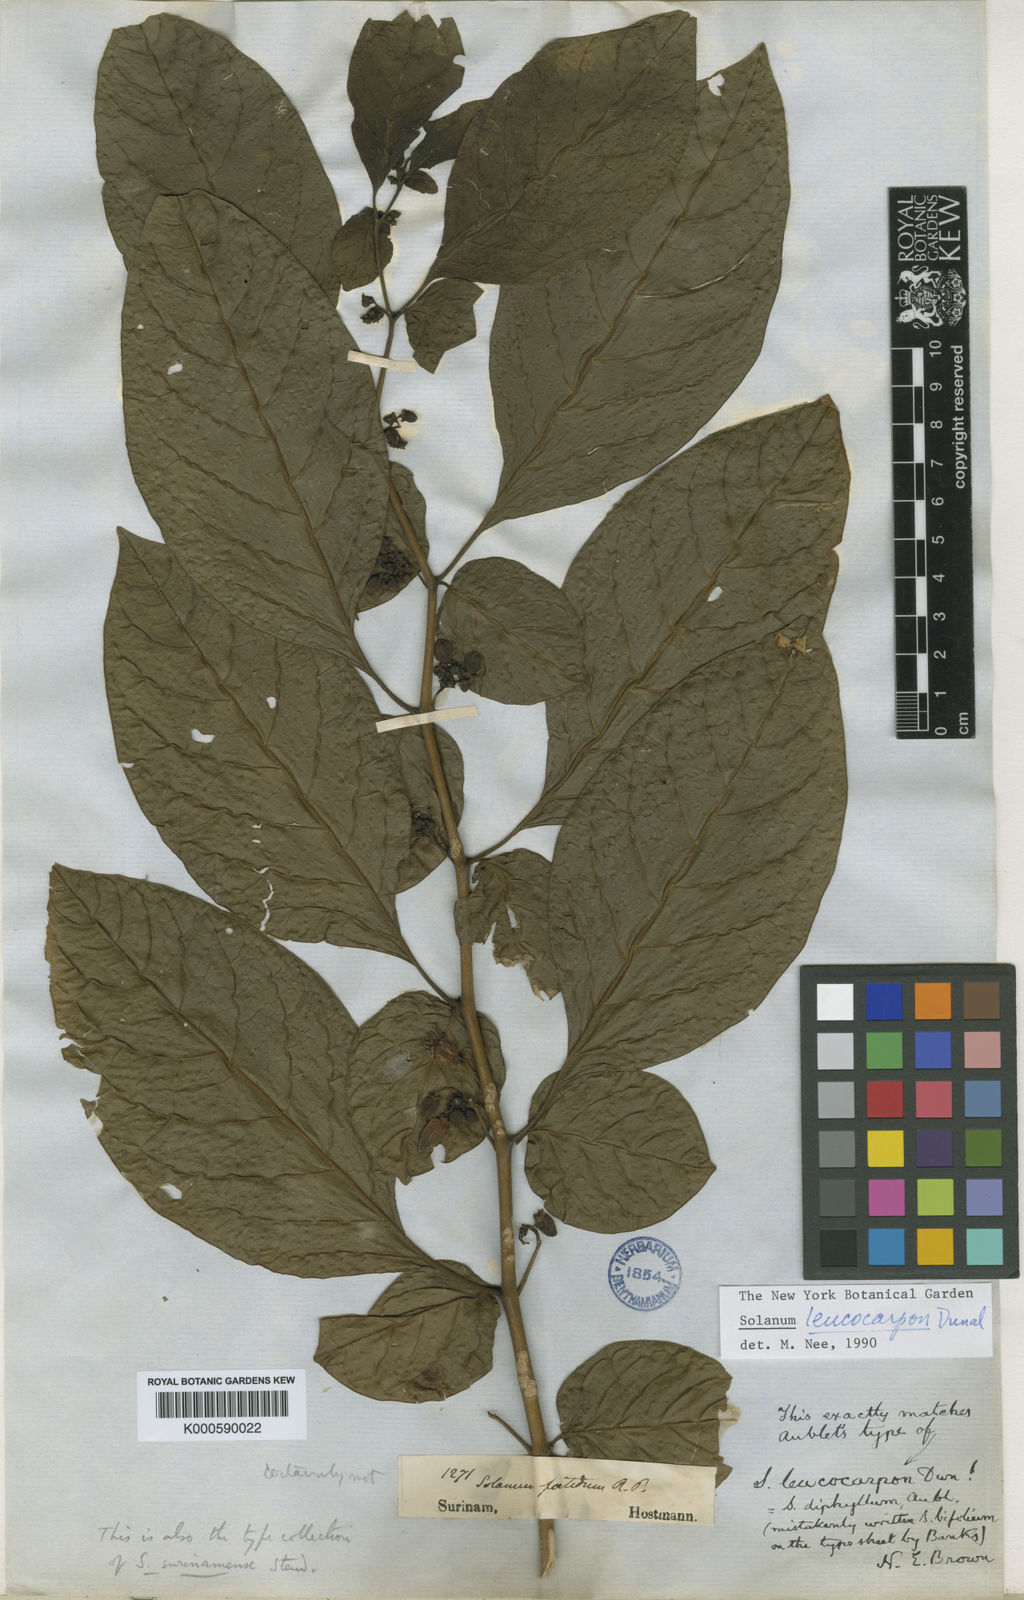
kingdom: Plantae
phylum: Tracheophyta
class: Magnoliopsida
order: Solanales
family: Solanaceae
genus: Solanum
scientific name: Solanum leucocarpon
